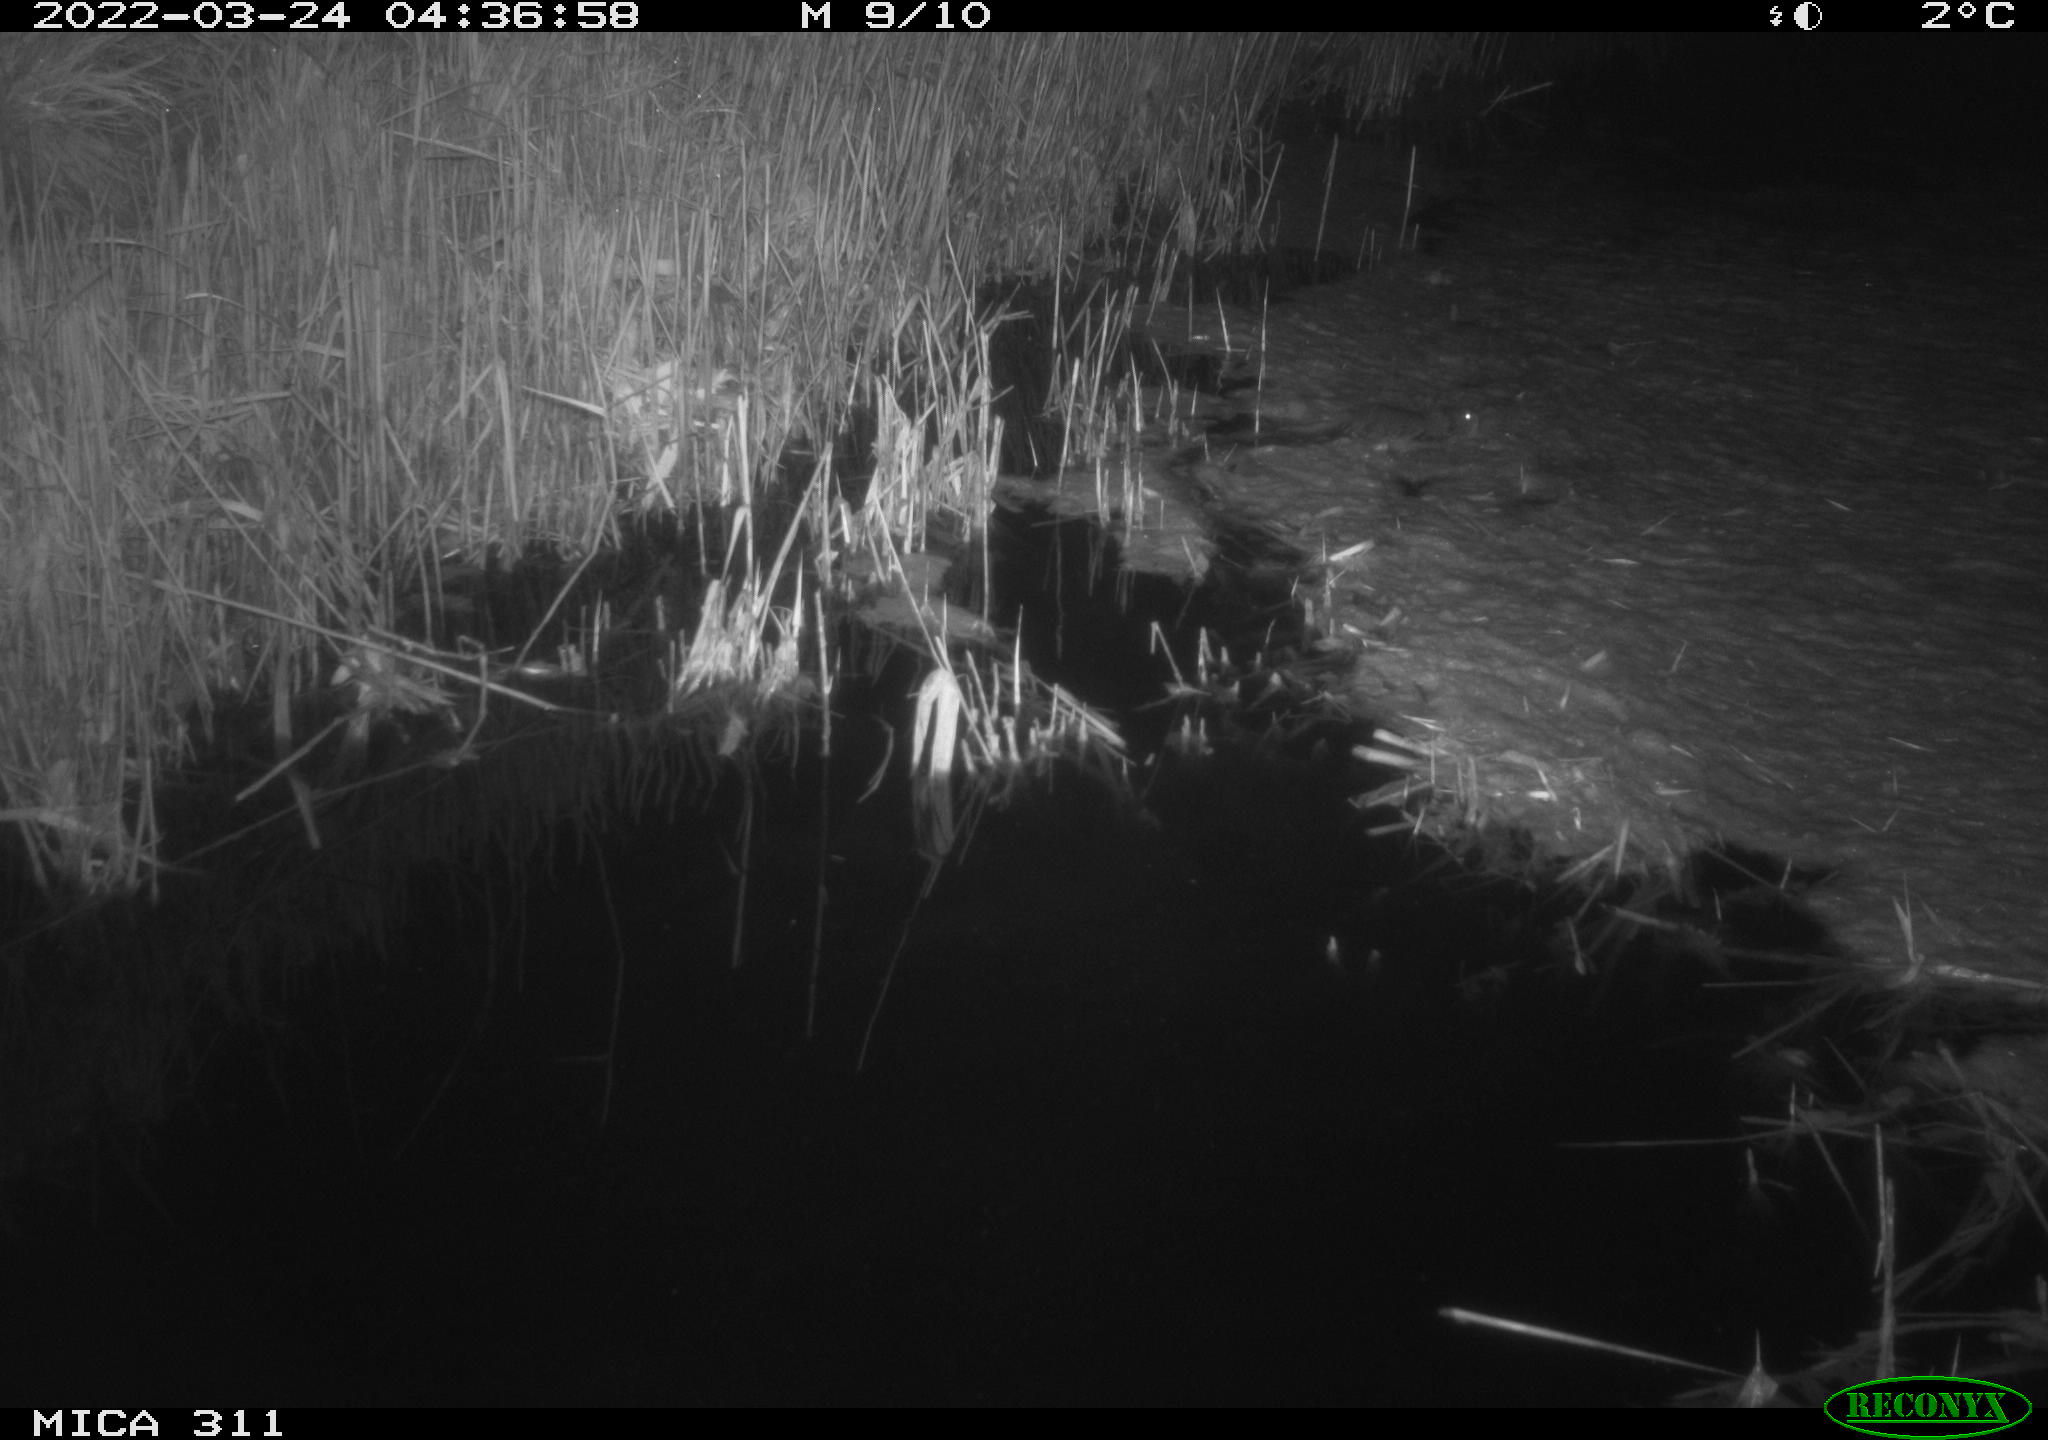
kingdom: Animalia
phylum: Chordata
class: Mammalia
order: Rodentia
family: Muridae
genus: Rattus
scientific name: Rattus norvegicus
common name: Brown rat
